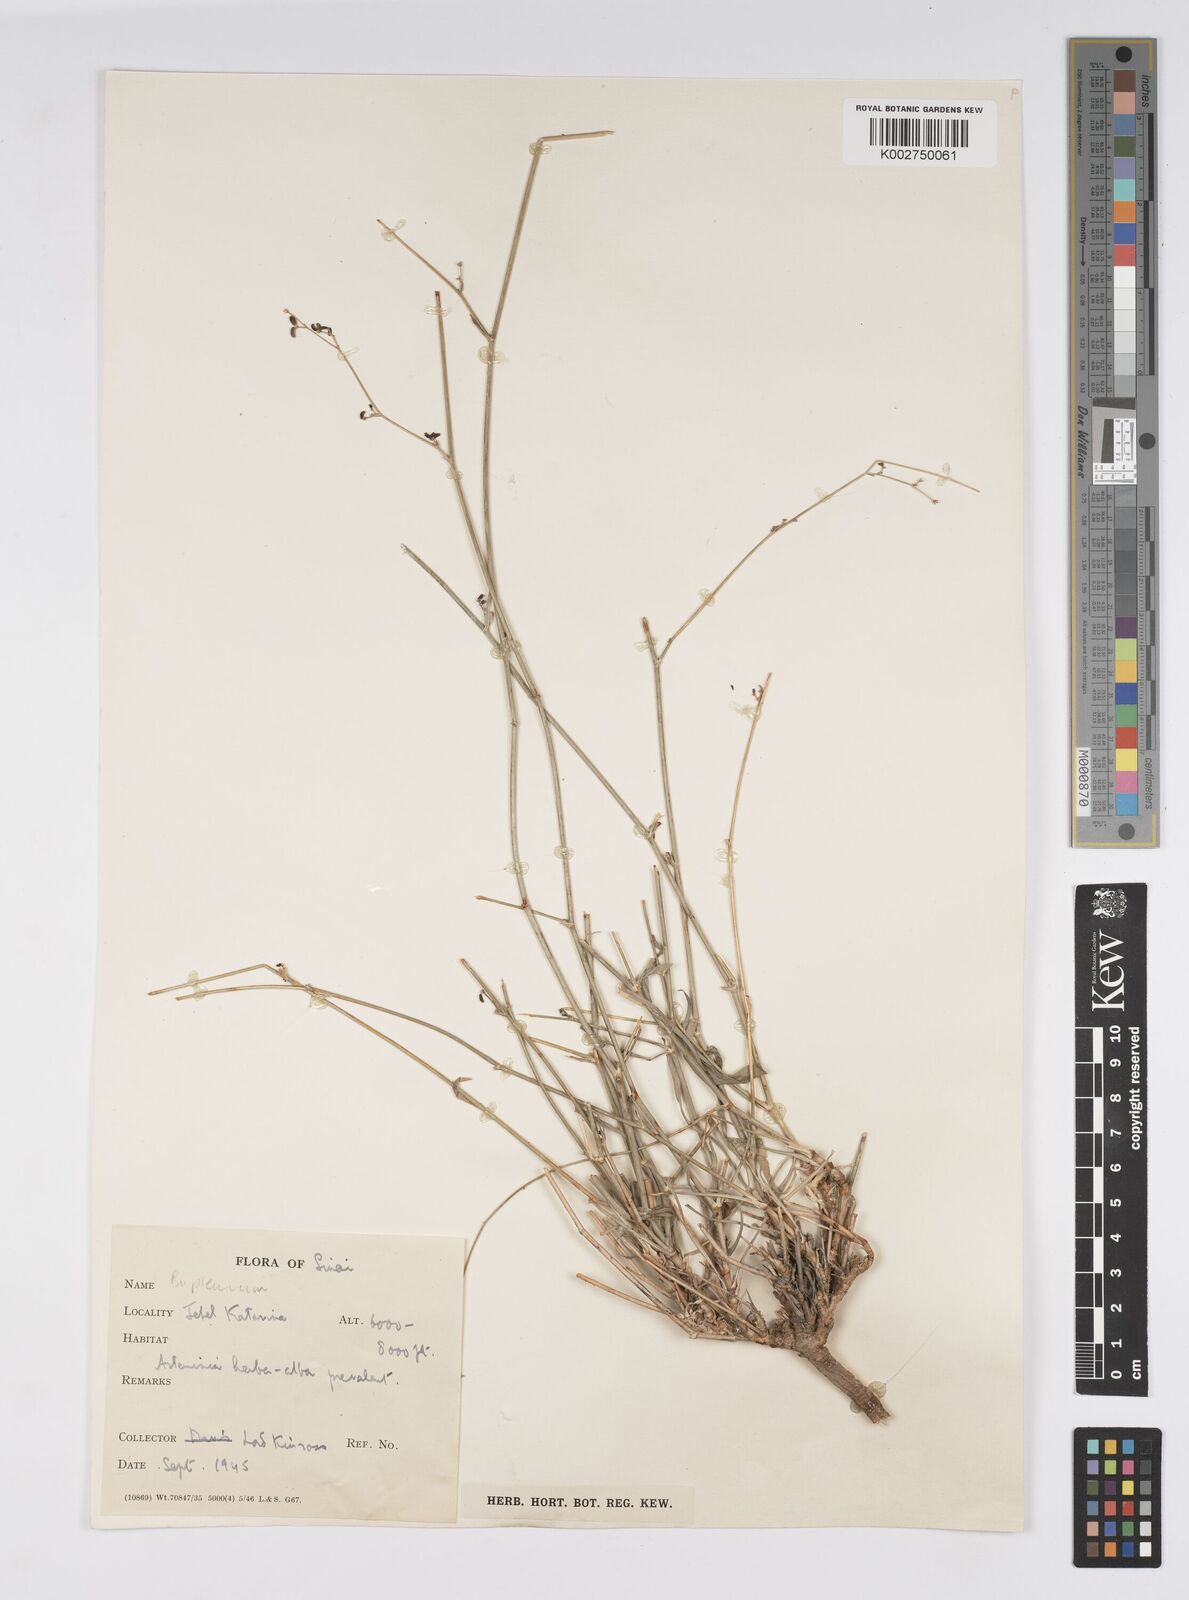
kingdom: Plantae
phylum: Tracheophyta
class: Magnoliopsida
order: Apiales
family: Apiaceae
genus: Bupleurum
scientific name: Bupleurum
